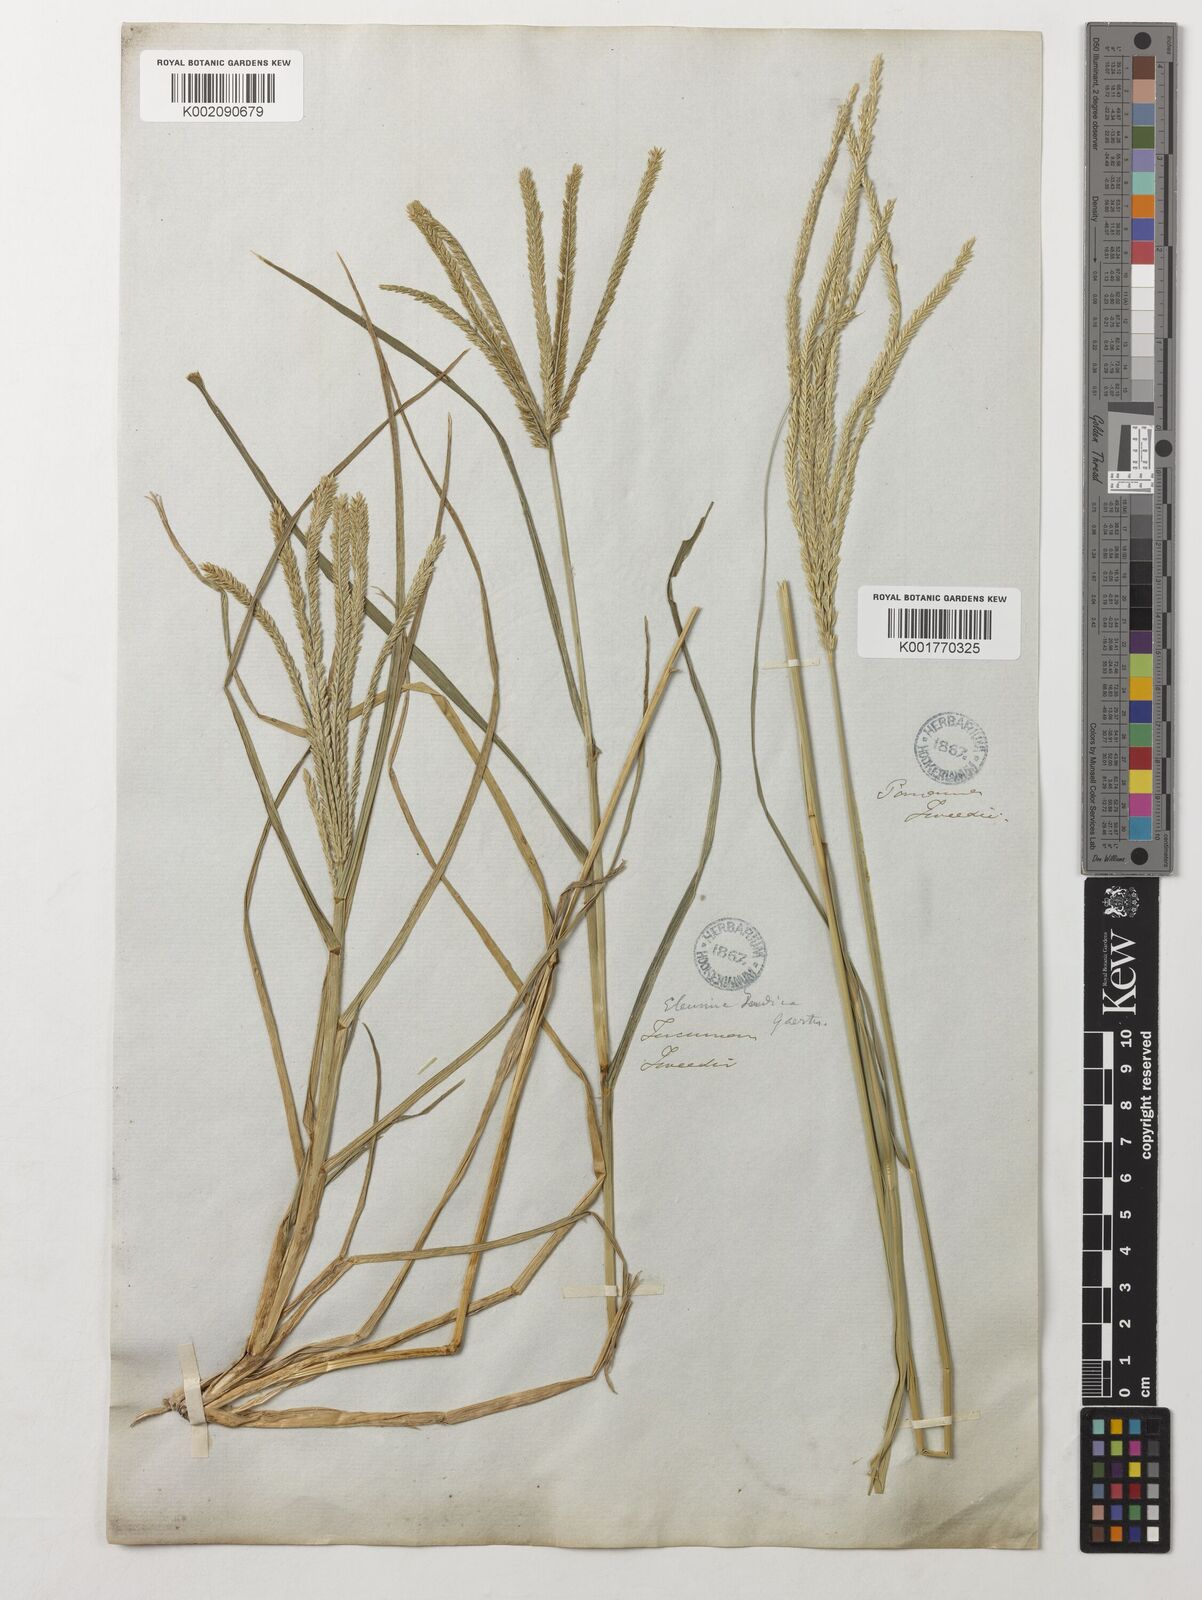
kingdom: Plantae
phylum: Tracheophyta
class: Liliopsida
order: Poales
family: Poaceae
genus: Eleusine
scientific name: Eleusine indica
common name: Yard-grass
